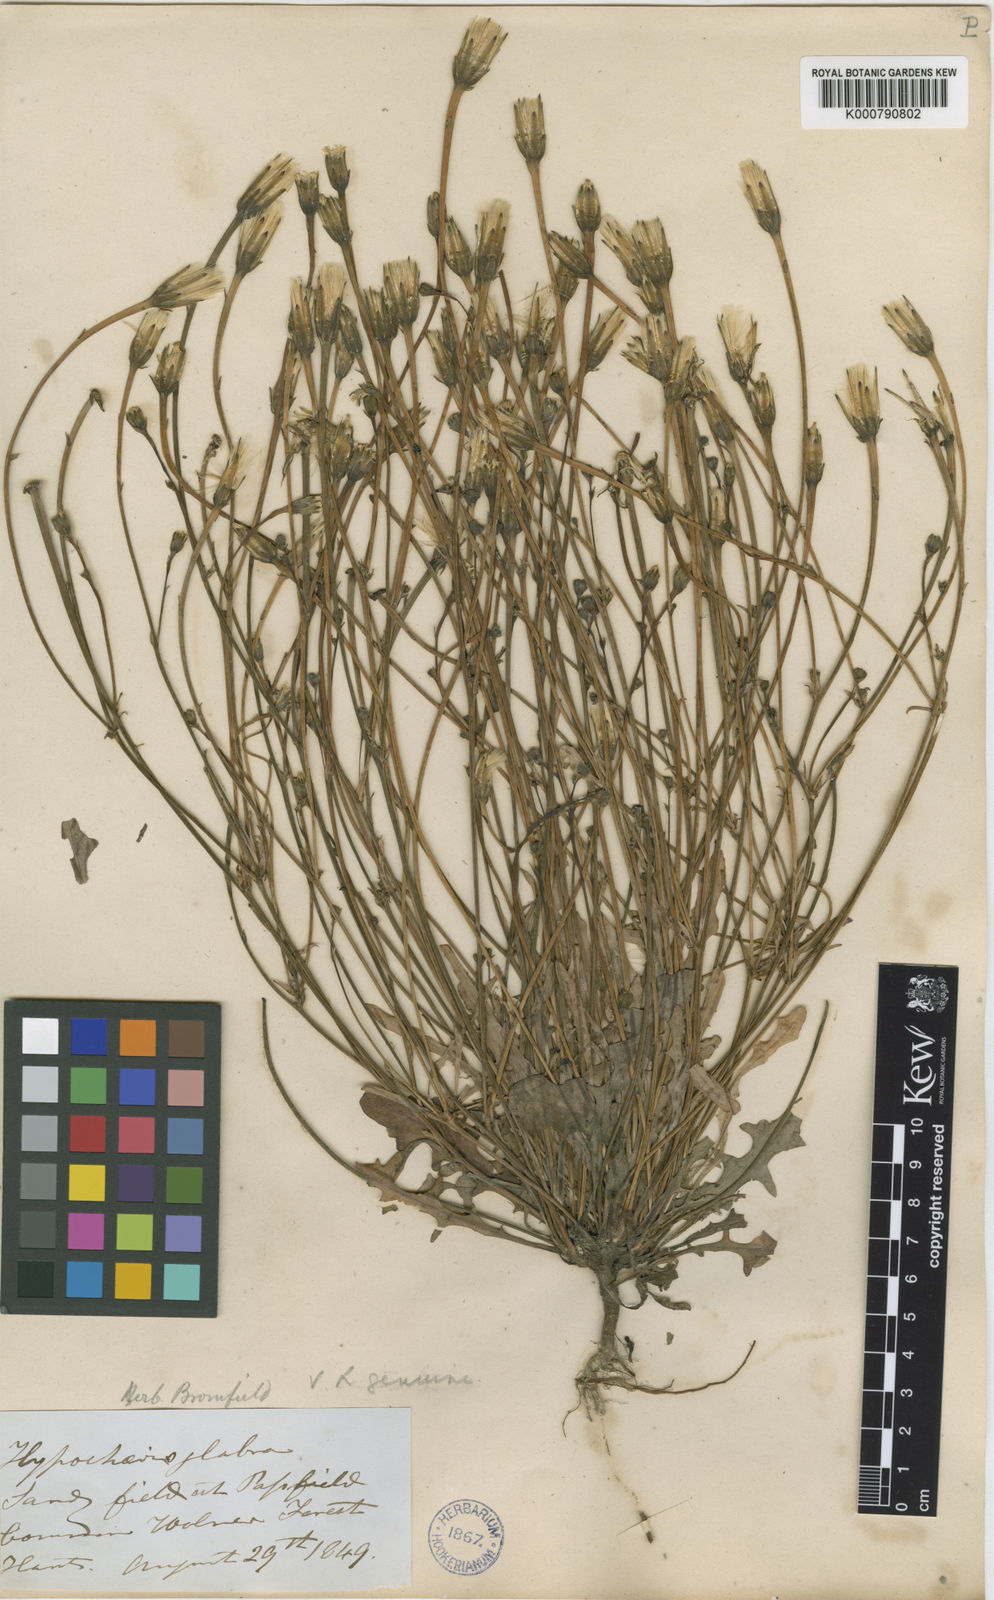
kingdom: Plantae
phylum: Tracheophyta
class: Magnoliopsida
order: Asterales
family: Asteraceae
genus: Hypochaeris
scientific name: Hypochaeris glabra
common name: Smooth catsear
